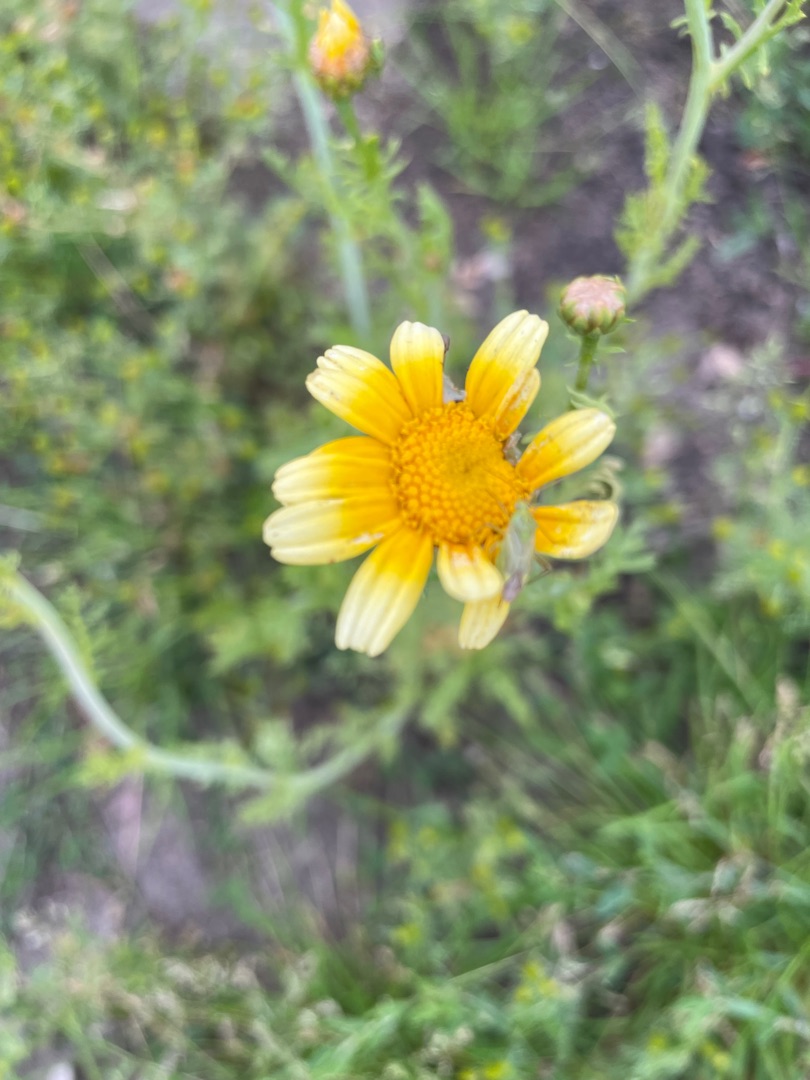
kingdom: Plantae
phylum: Tracheophyta
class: Magnoliopsida
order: Asterales
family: Asteraceae
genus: Glebionis
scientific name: Glebionis carinata
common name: Flerfarvet okseøje
